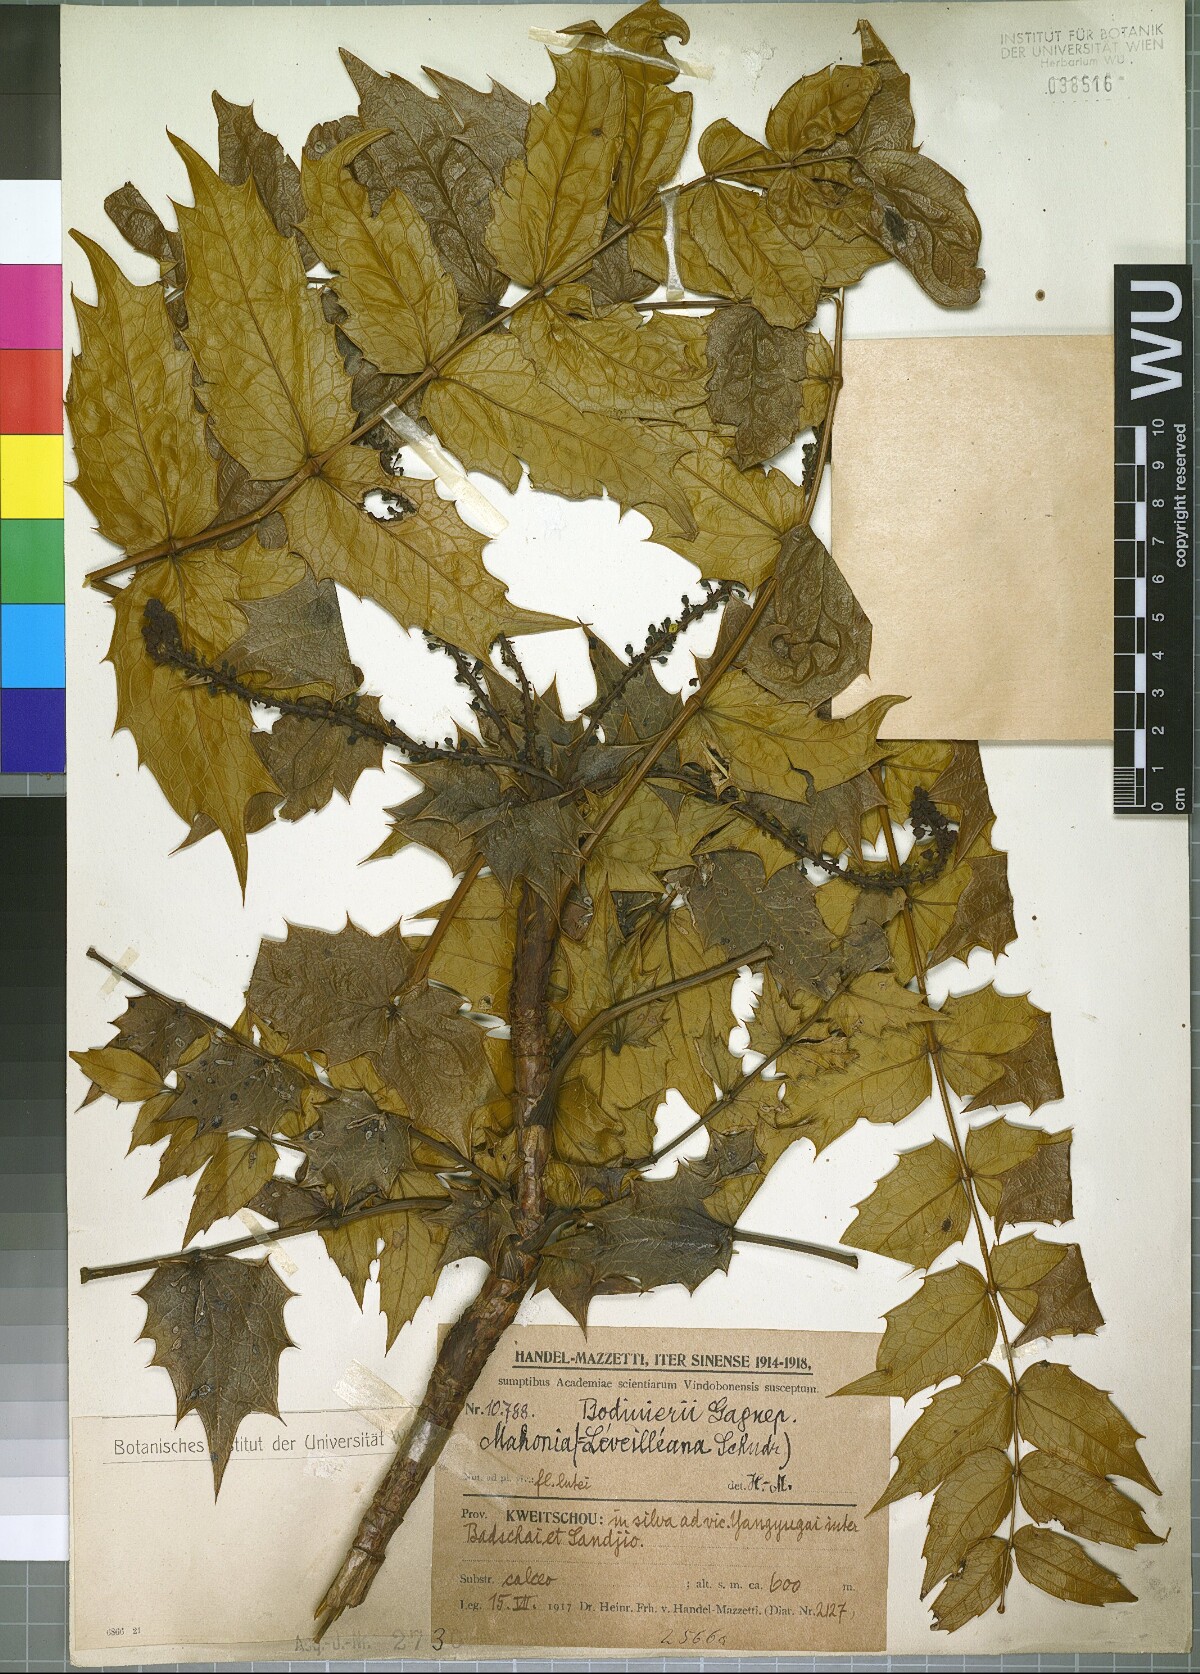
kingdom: Plantae
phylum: Tracheophyta
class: Magnoliopsida
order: Ranunculales
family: Berberidaceae
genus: Mahonia
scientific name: Mahonia leveilleana
